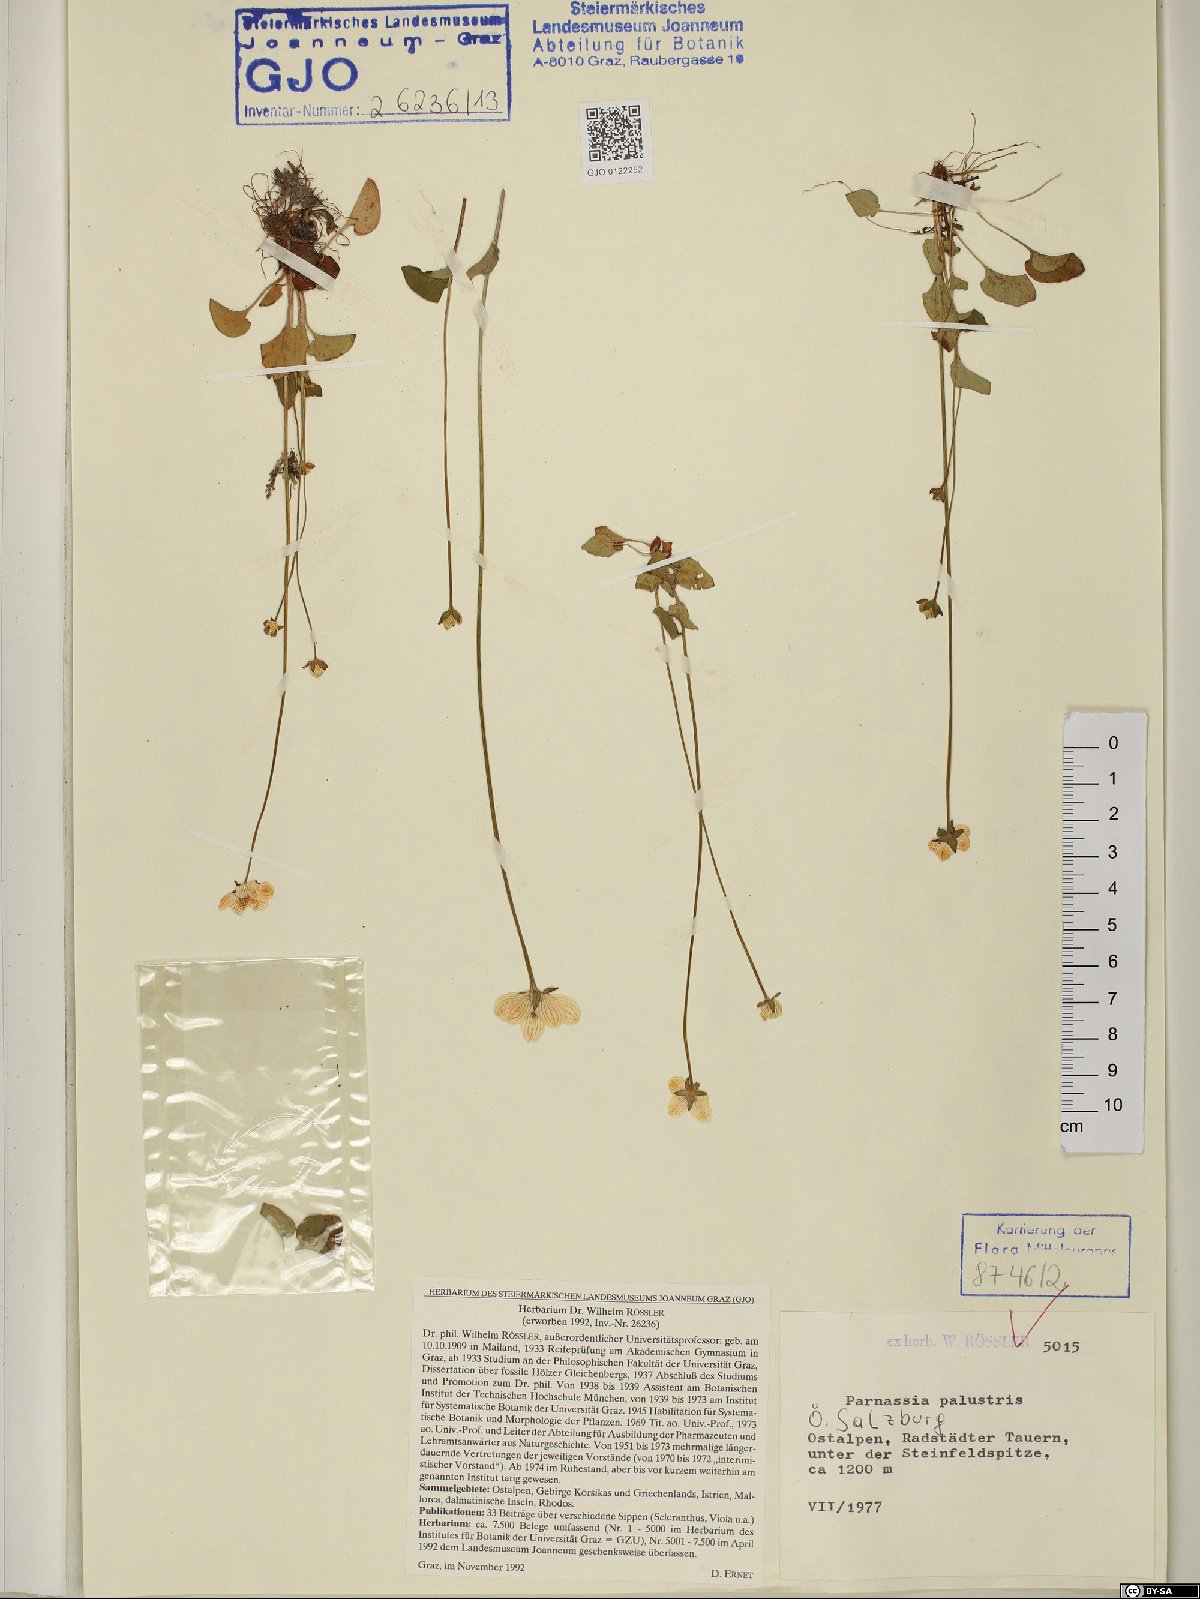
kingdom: Plantae
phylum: Tracheophyta
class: Magnoliopsida
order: Celastrales
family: Parnassiaceae
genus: Parnassia
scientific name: Parnassia palustris
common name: Grass-of-parnassus
